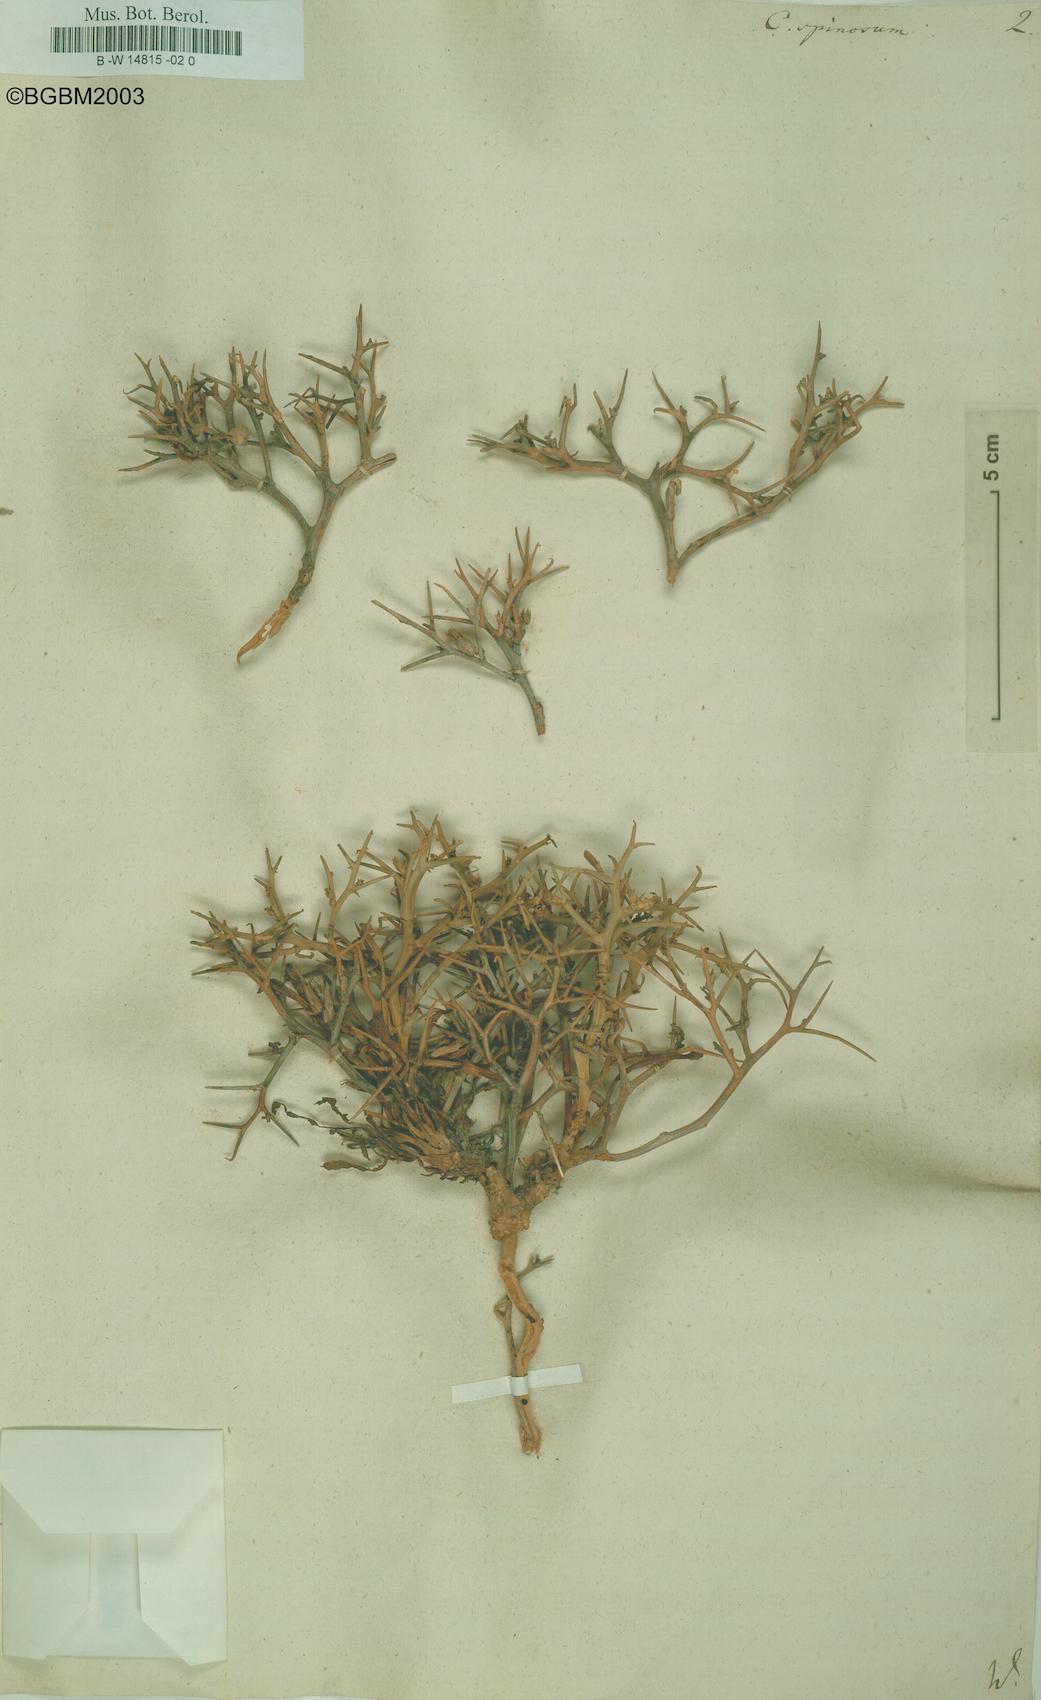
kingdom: Plantae
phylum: Tracheophyta
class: Magnoliopsida
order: Asterales
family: Asteraceae
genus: Cichorium
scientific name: Cichorium spinosum
